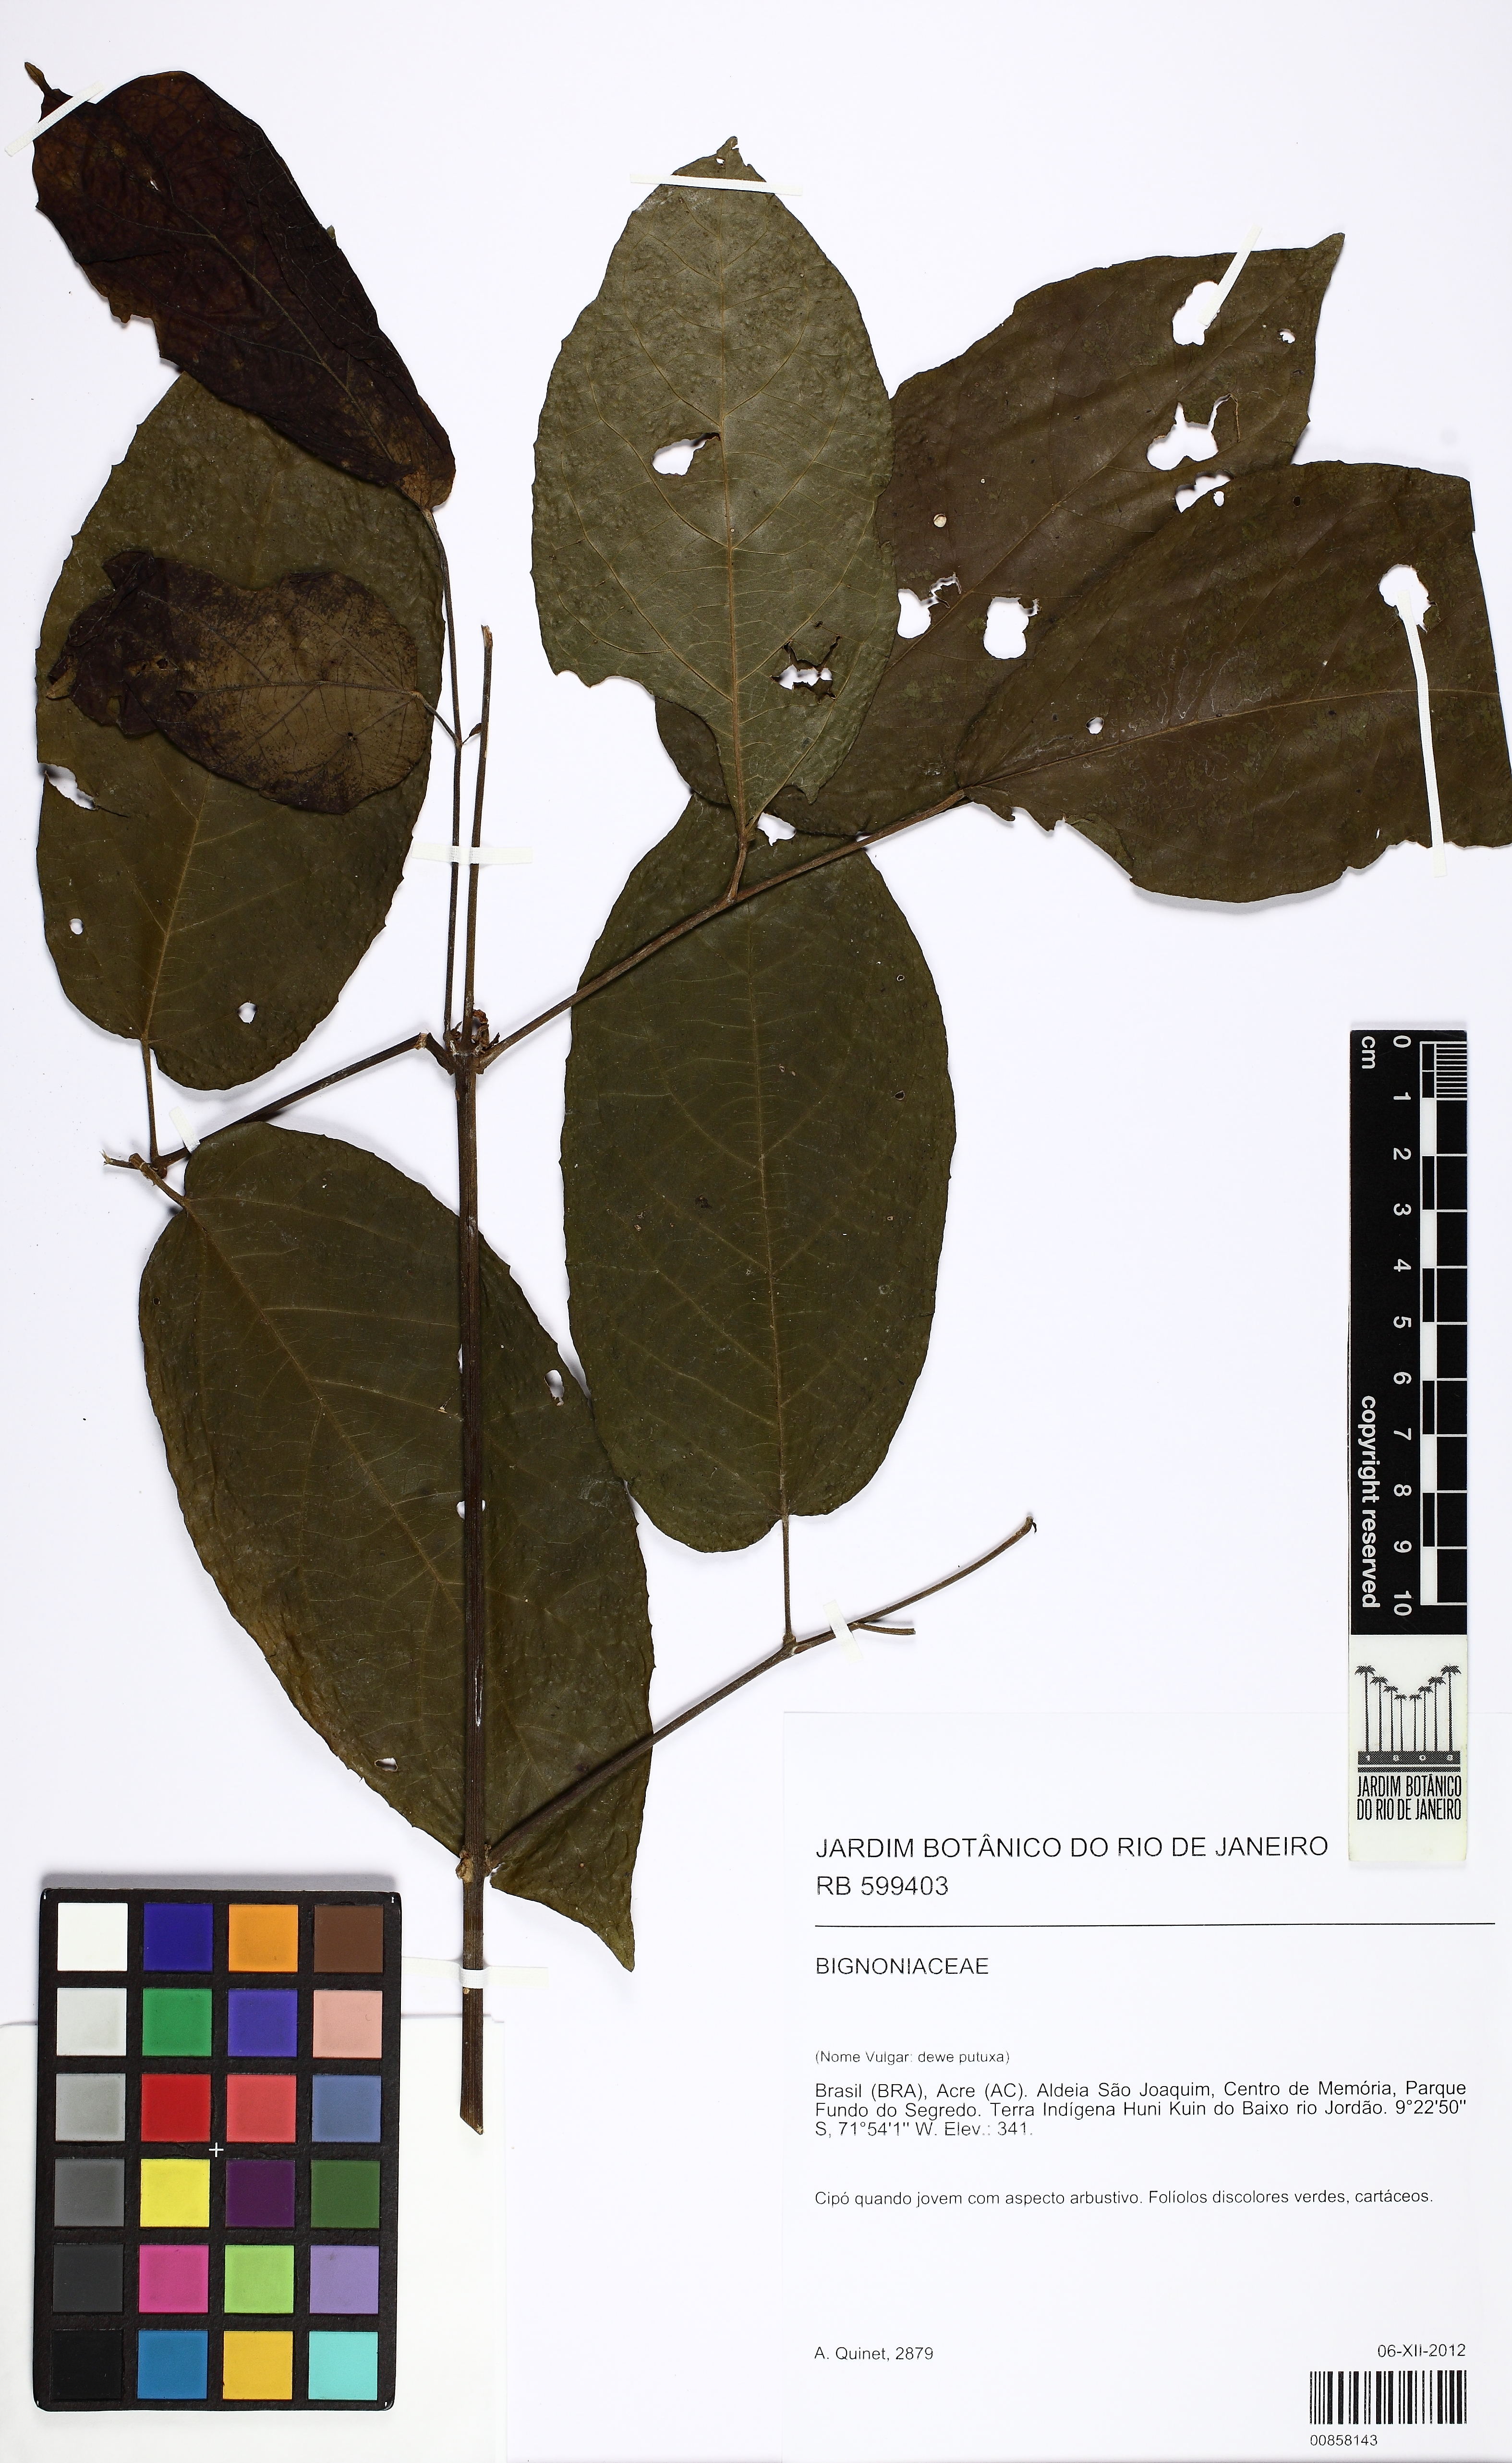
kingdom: Plantae
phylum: Tracheophyta
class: Magnoliopsida
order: Lamiales
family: Bignoniaceae
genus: Stizophyllum
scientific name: Stizophyllum
